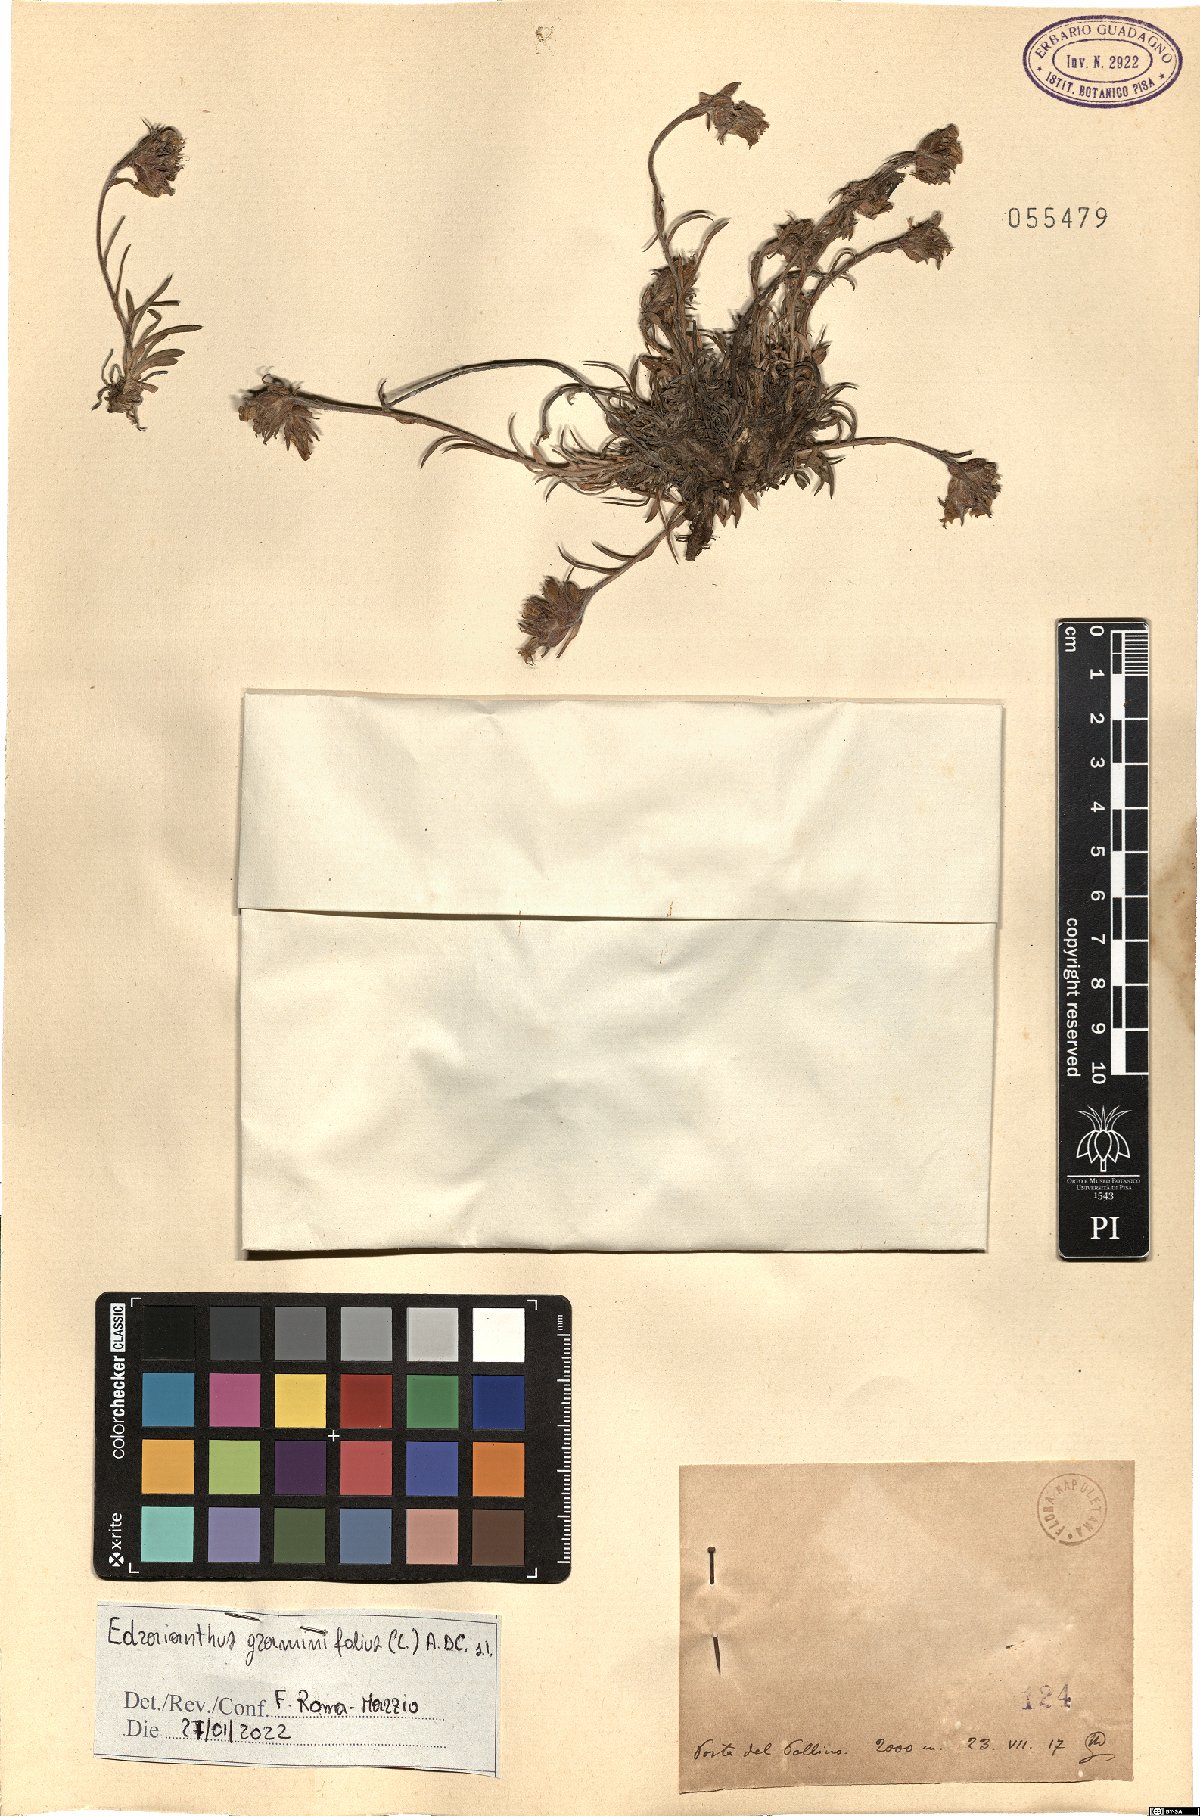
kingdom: Plantae
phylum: Tracheophyta
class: Magnoliopsida
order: Asterales
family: Campanulaceae
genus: Edraianthus
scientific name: Edraianthus graminifolius
